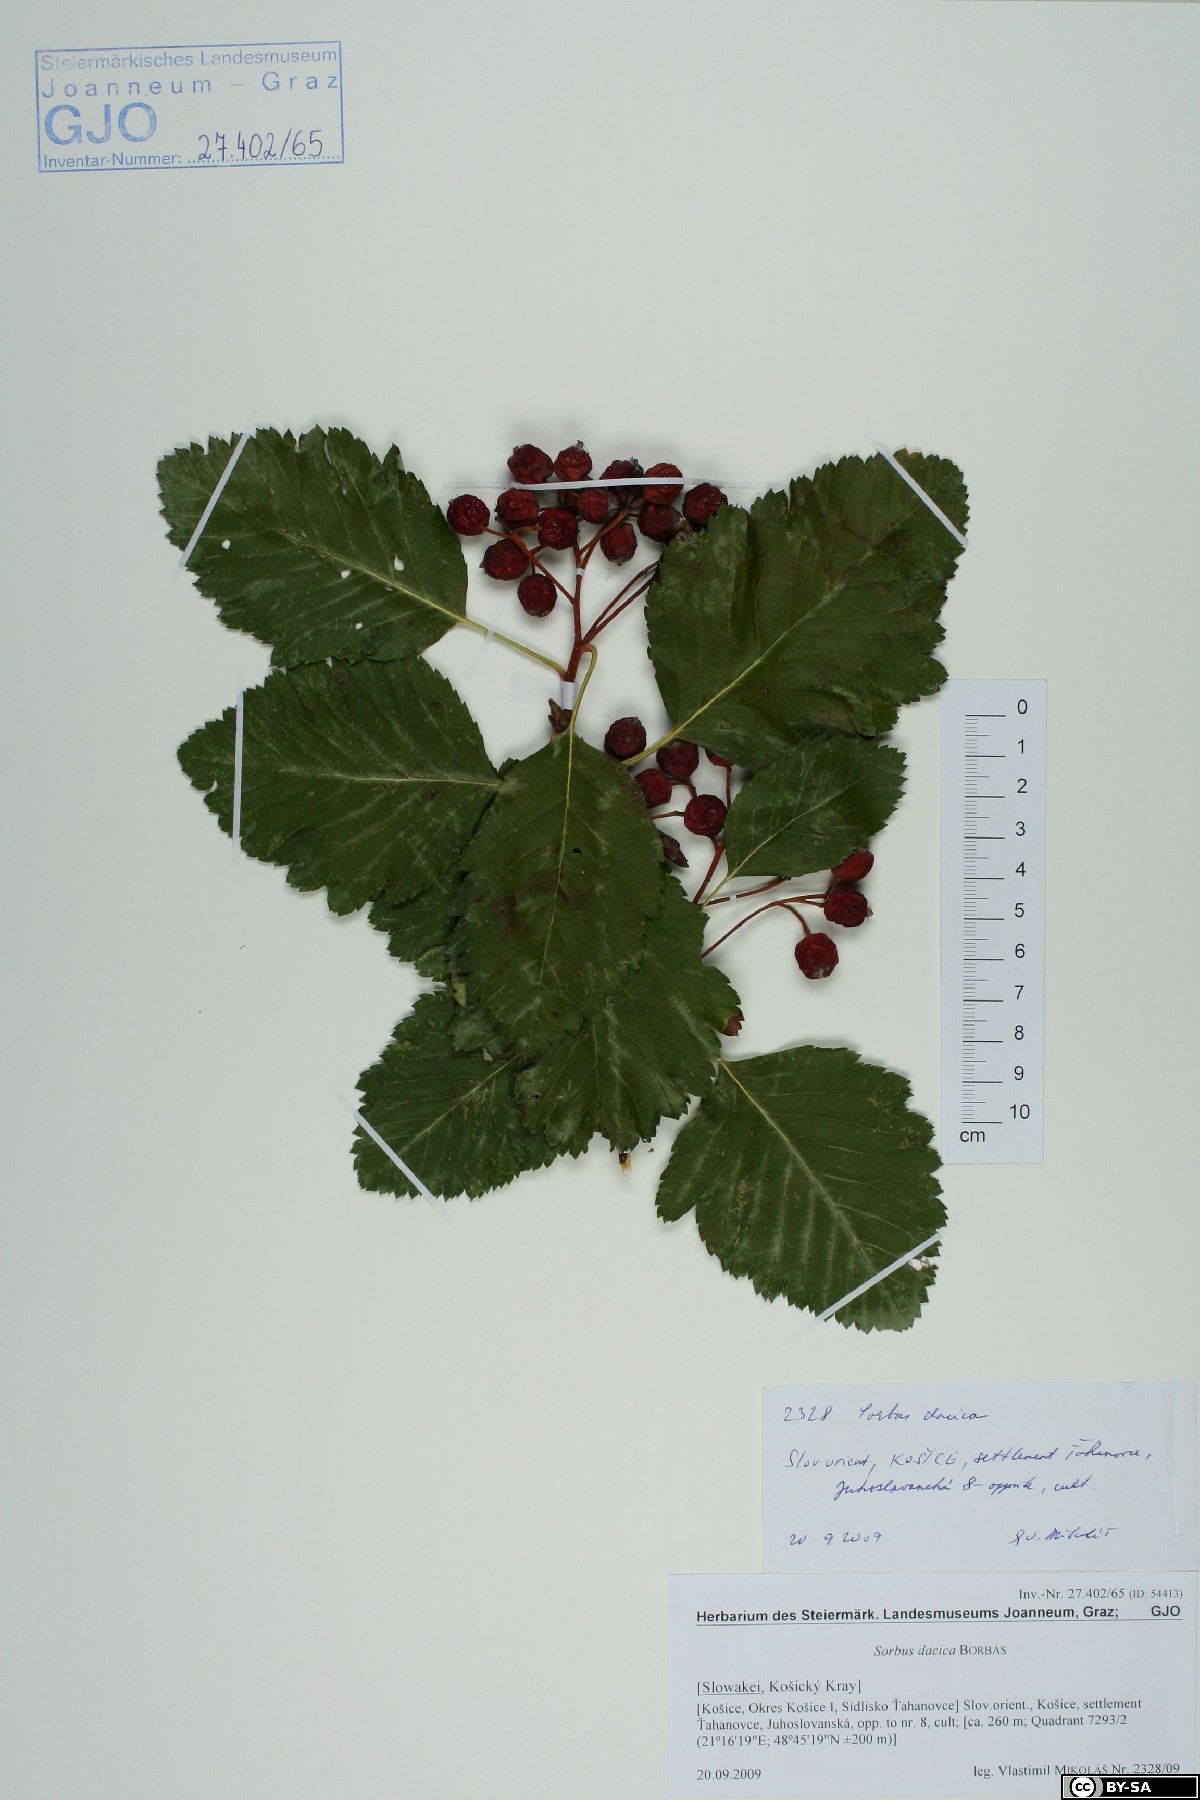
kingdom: Plantae
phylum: Tracheophyta
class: Magnoliopsida
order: Rosales
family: Rosaceae
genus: Hedlundia
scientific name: Hedlundia semipinnata
